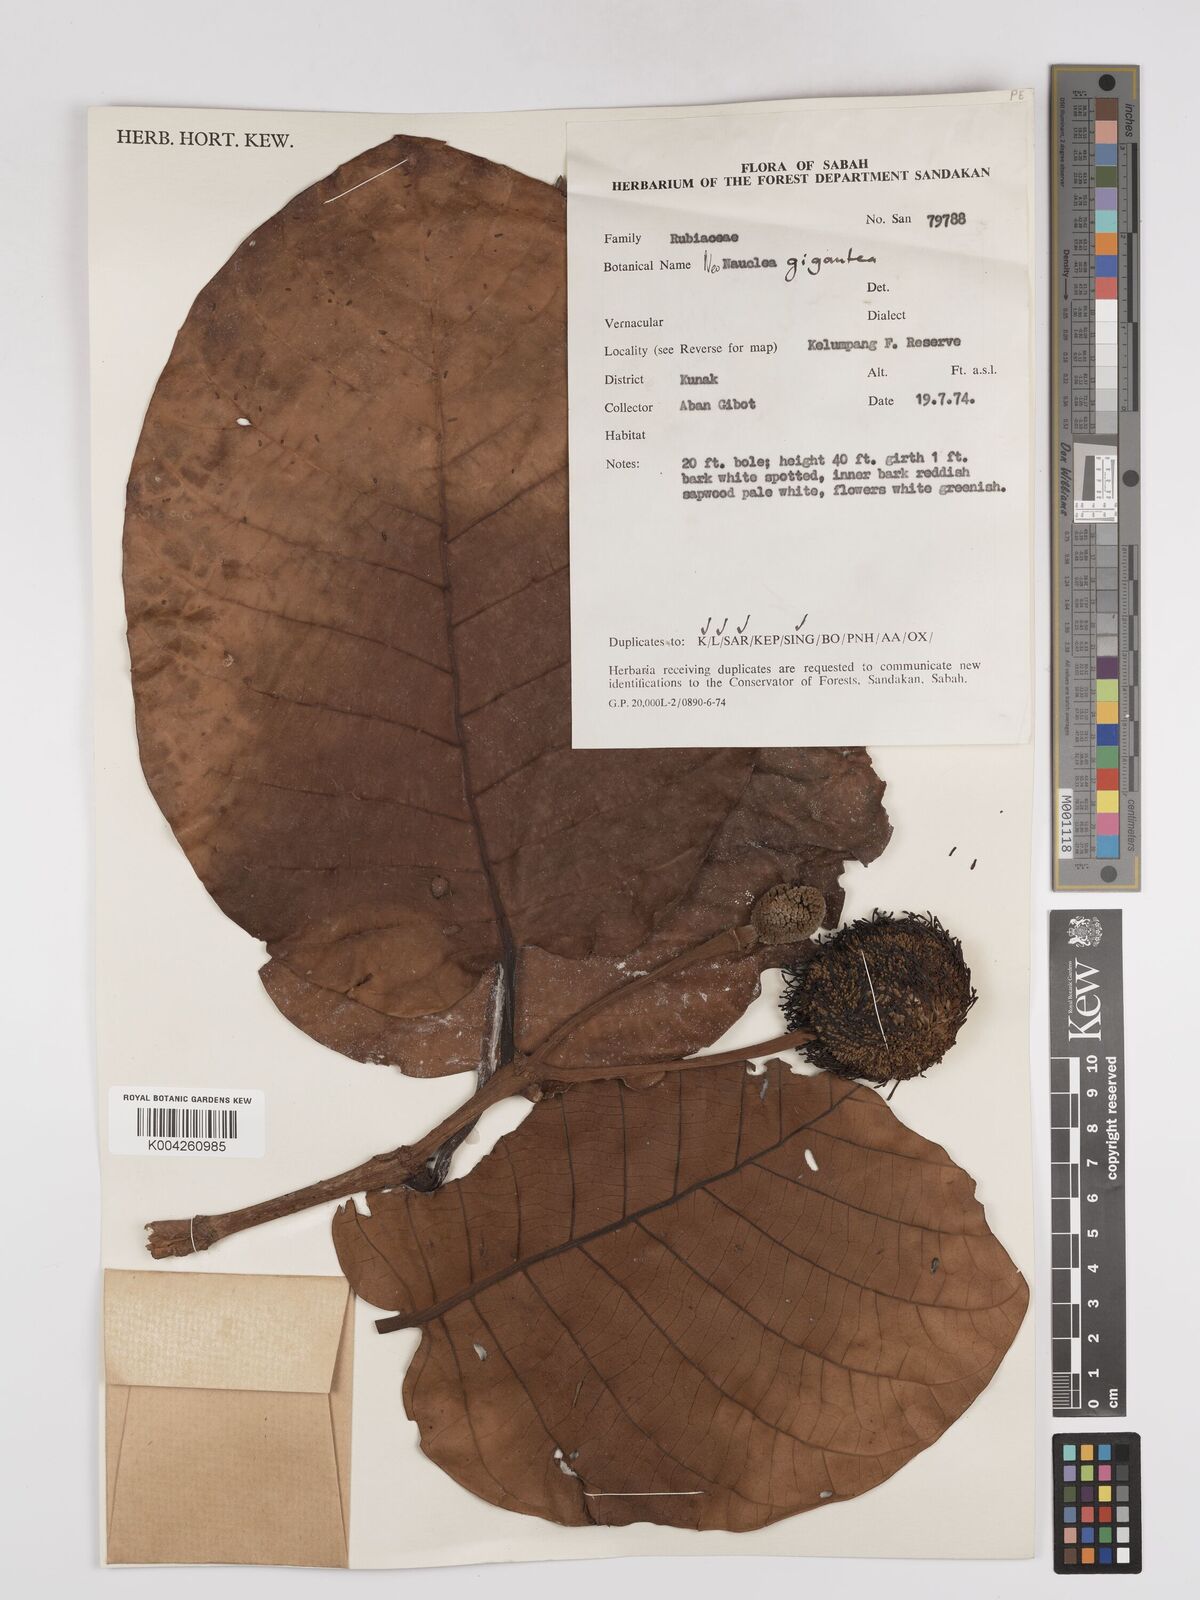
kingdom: Plantae
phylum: Tracheophyta
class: Magnoliopsida
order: Gentianales
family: Rubiaceae
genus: Neonauclea
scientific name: Neonauclea gigantea
